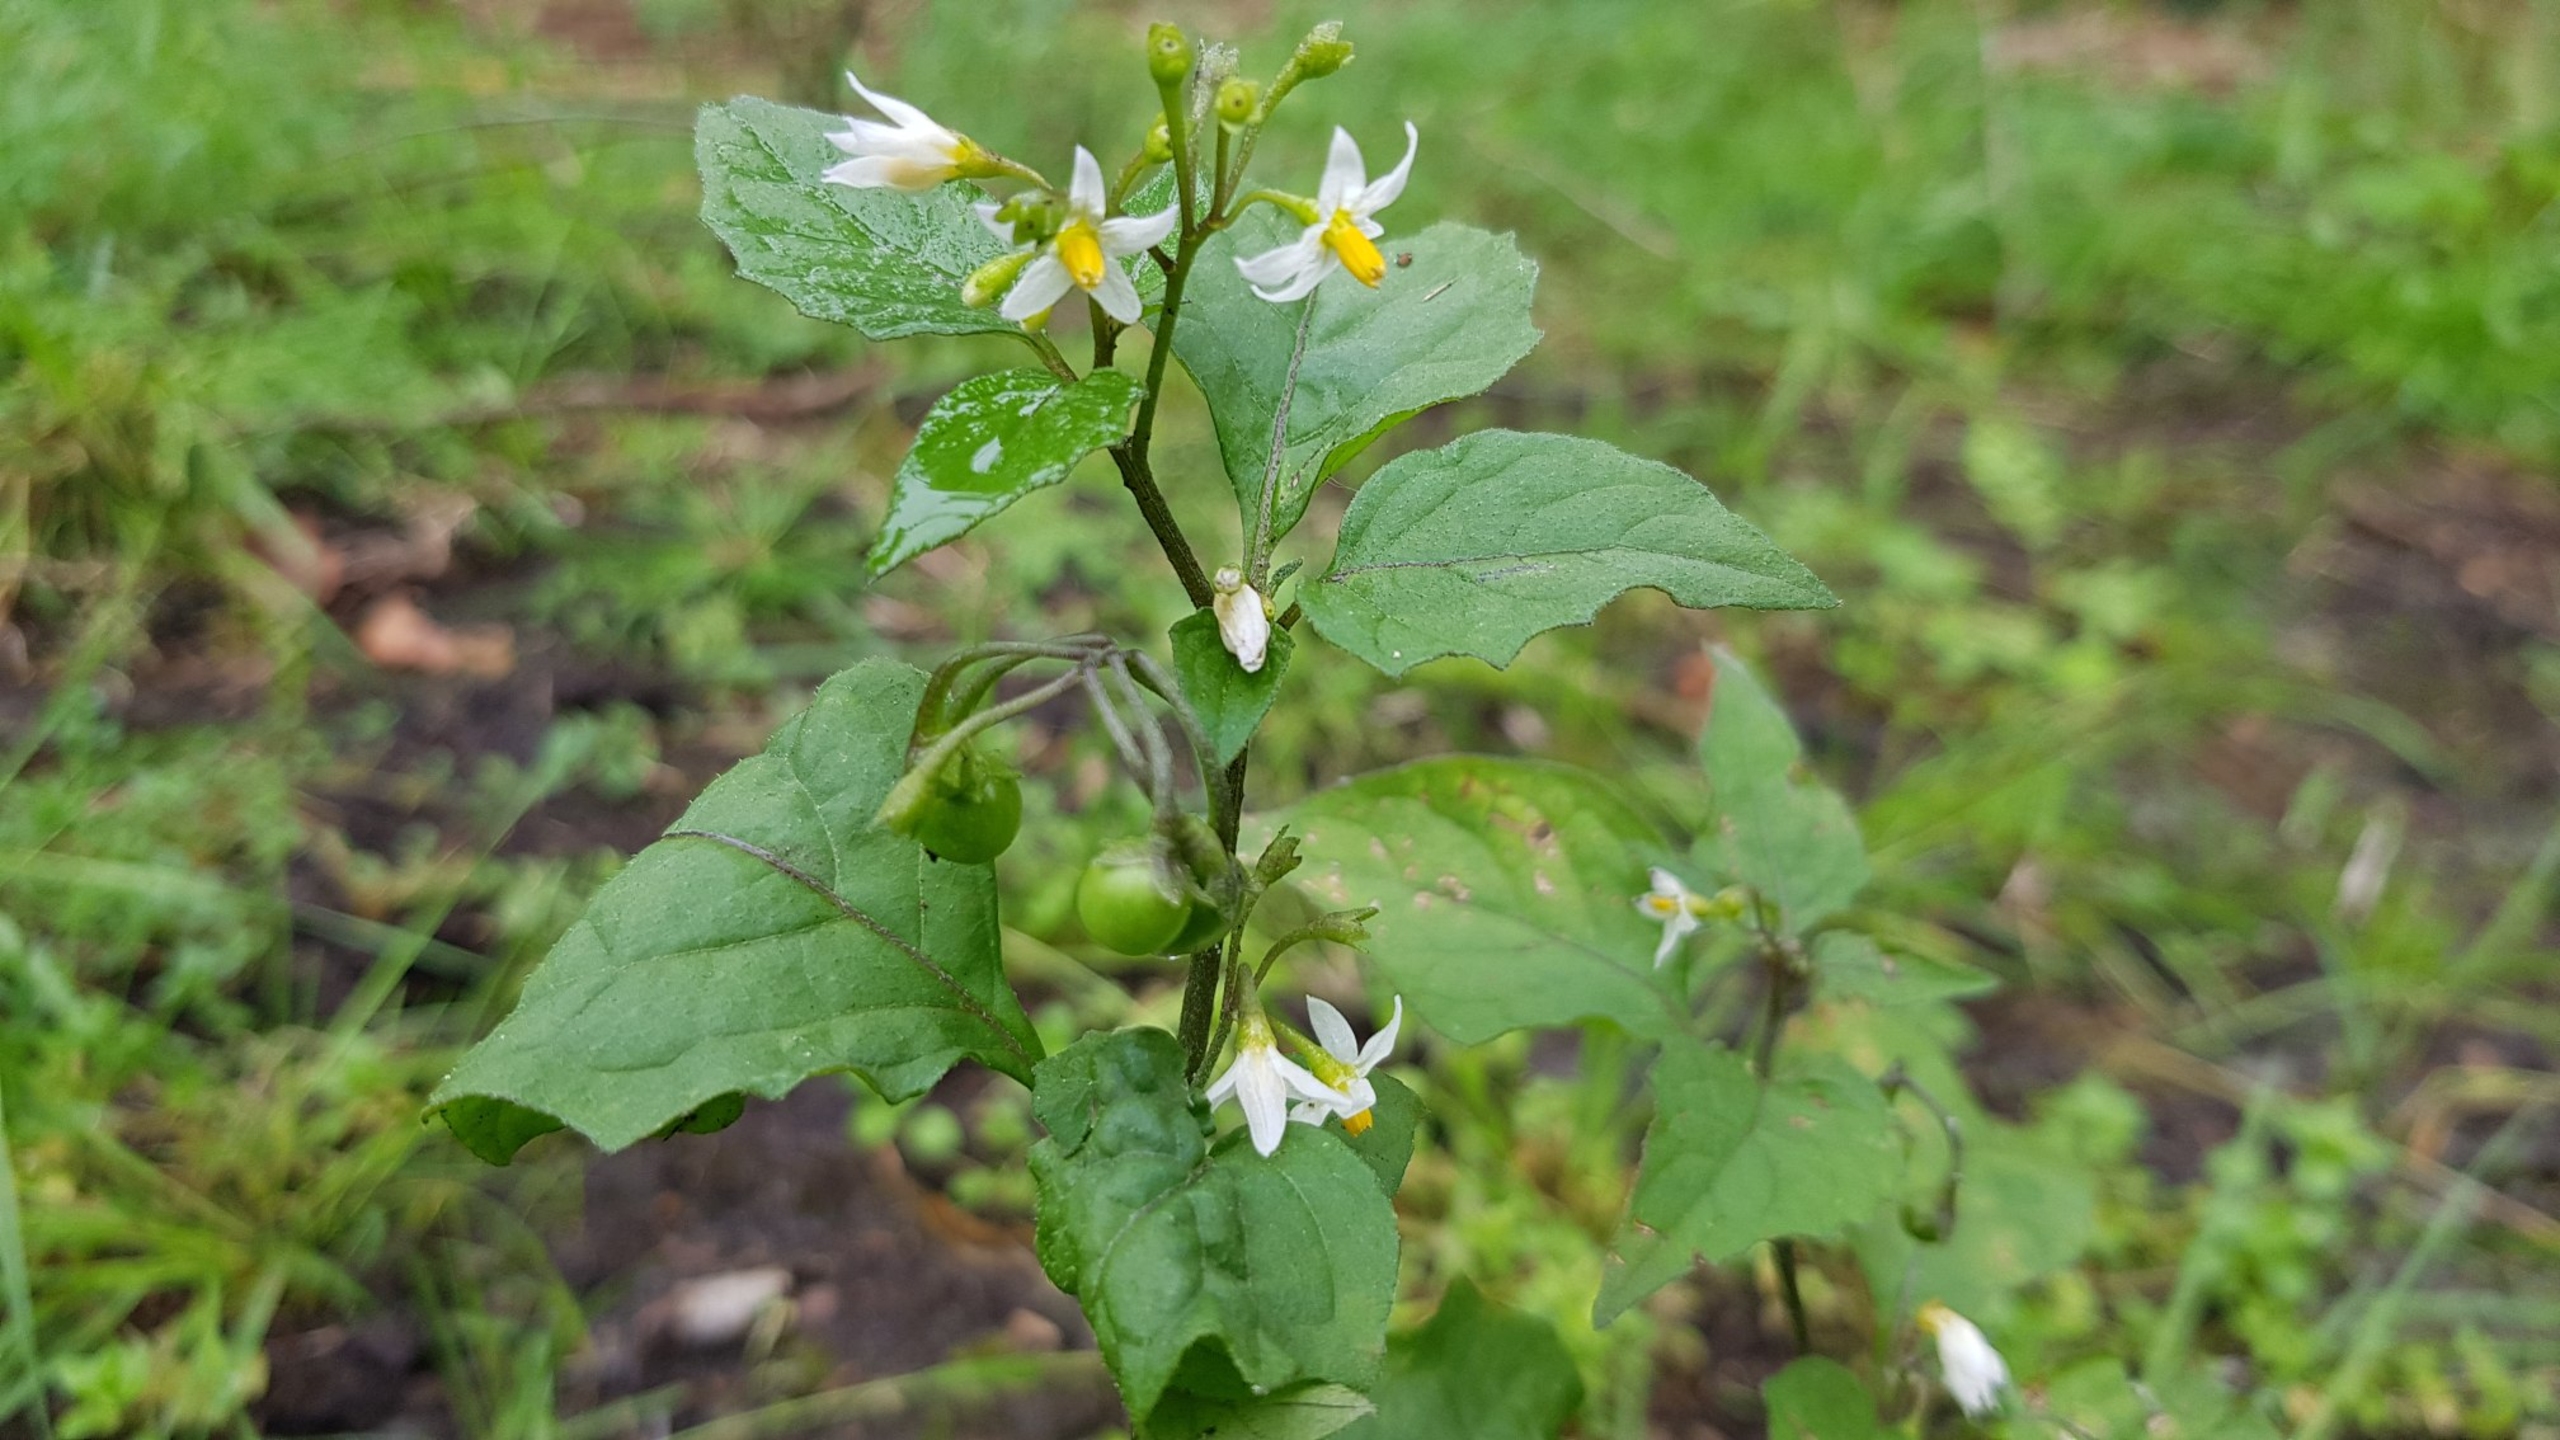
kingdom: Plantae
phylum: Tracheophyta
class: Magnoliopsida
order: Solanales
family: Solanaceae
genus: Solanum
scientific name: Solanum nigrum
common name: Sort natskygge
